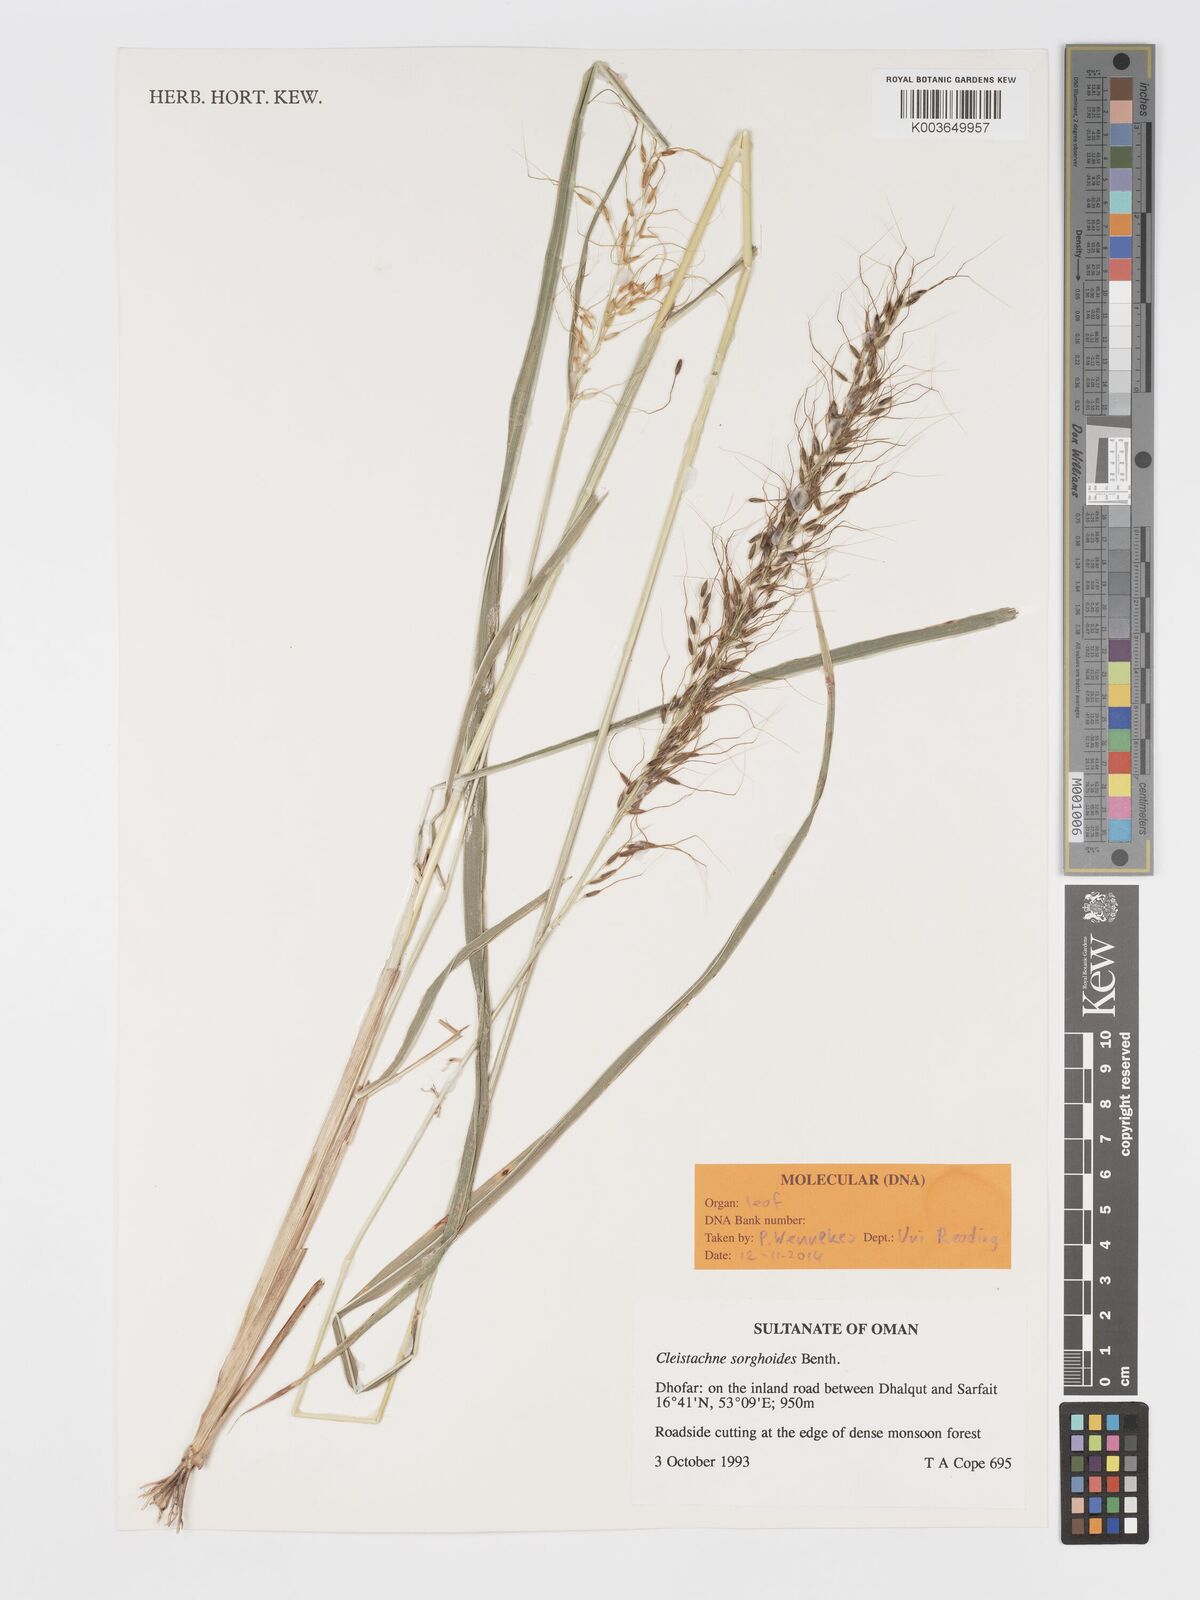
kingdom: Plantae
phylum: Tracheophyta
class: Liliopsida
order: Poales
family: Poaceae
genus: Cleistachne
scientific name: Cleistachne sorghoides
